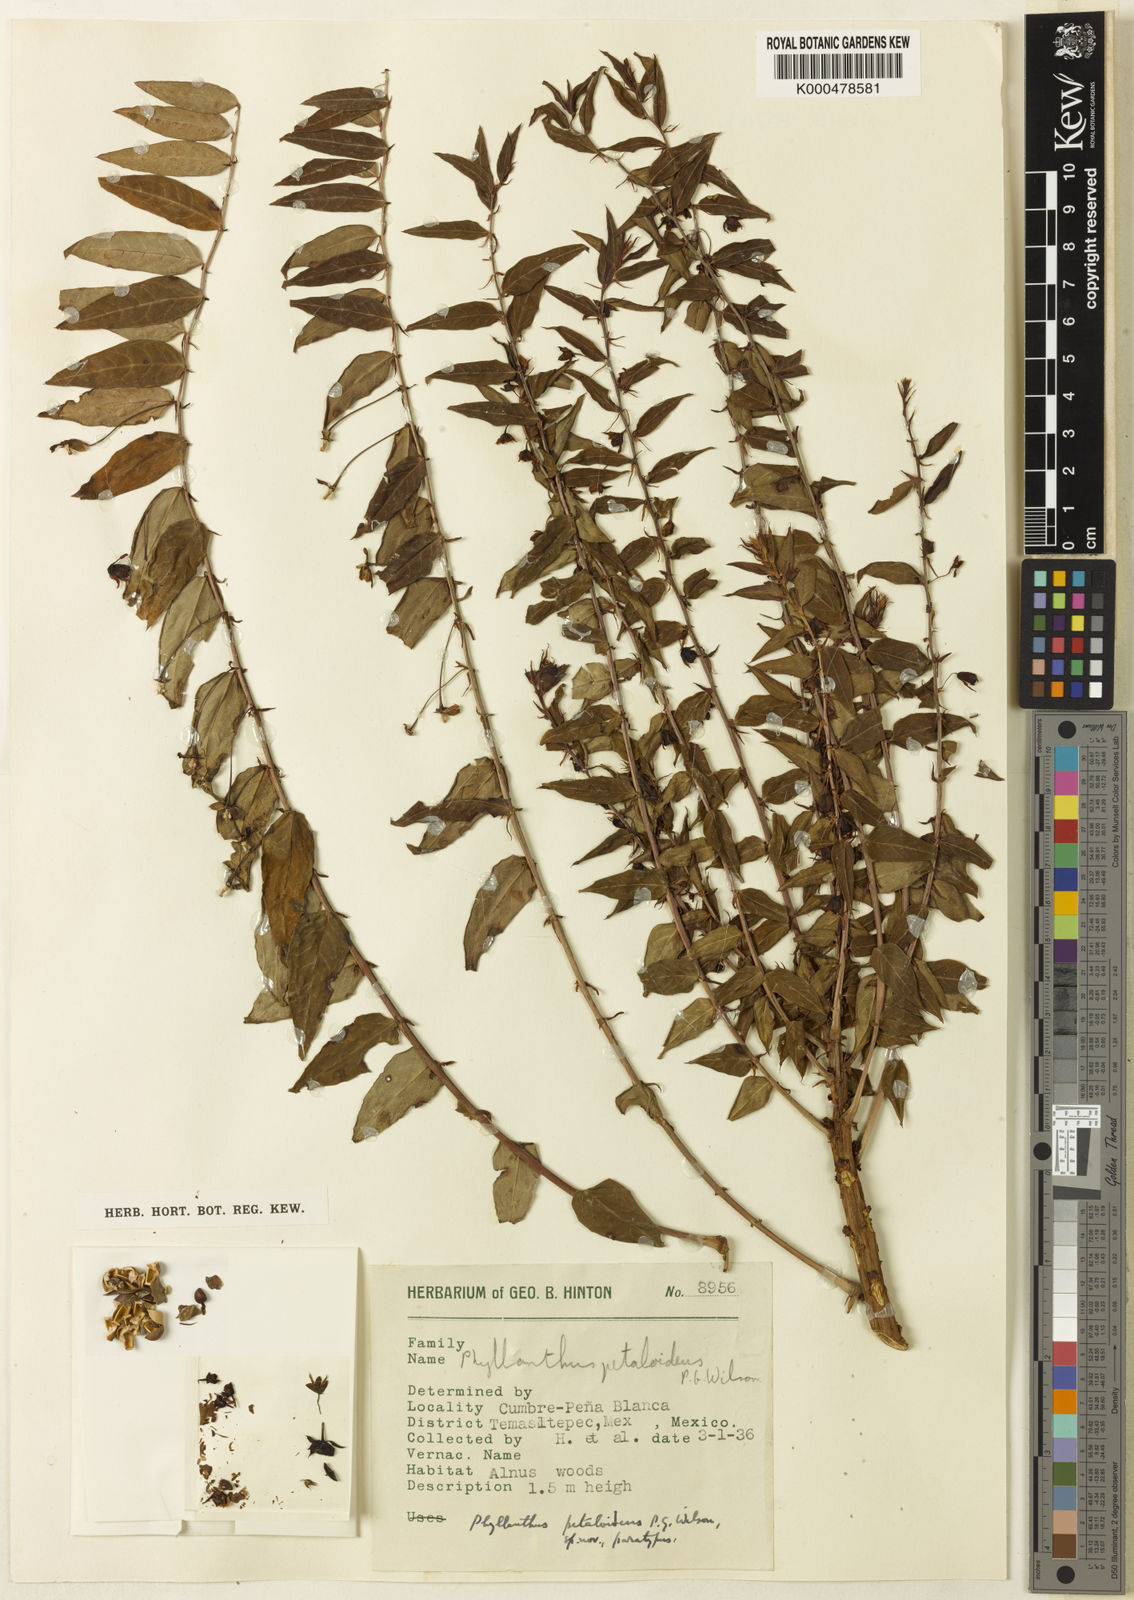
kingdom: Plantae
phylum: Tracheophyta
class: Magnoliopsida
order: Malpighiales
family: Phyllanthaceae
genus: Phyllanthus
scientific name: Phyllanthus petaloideus
